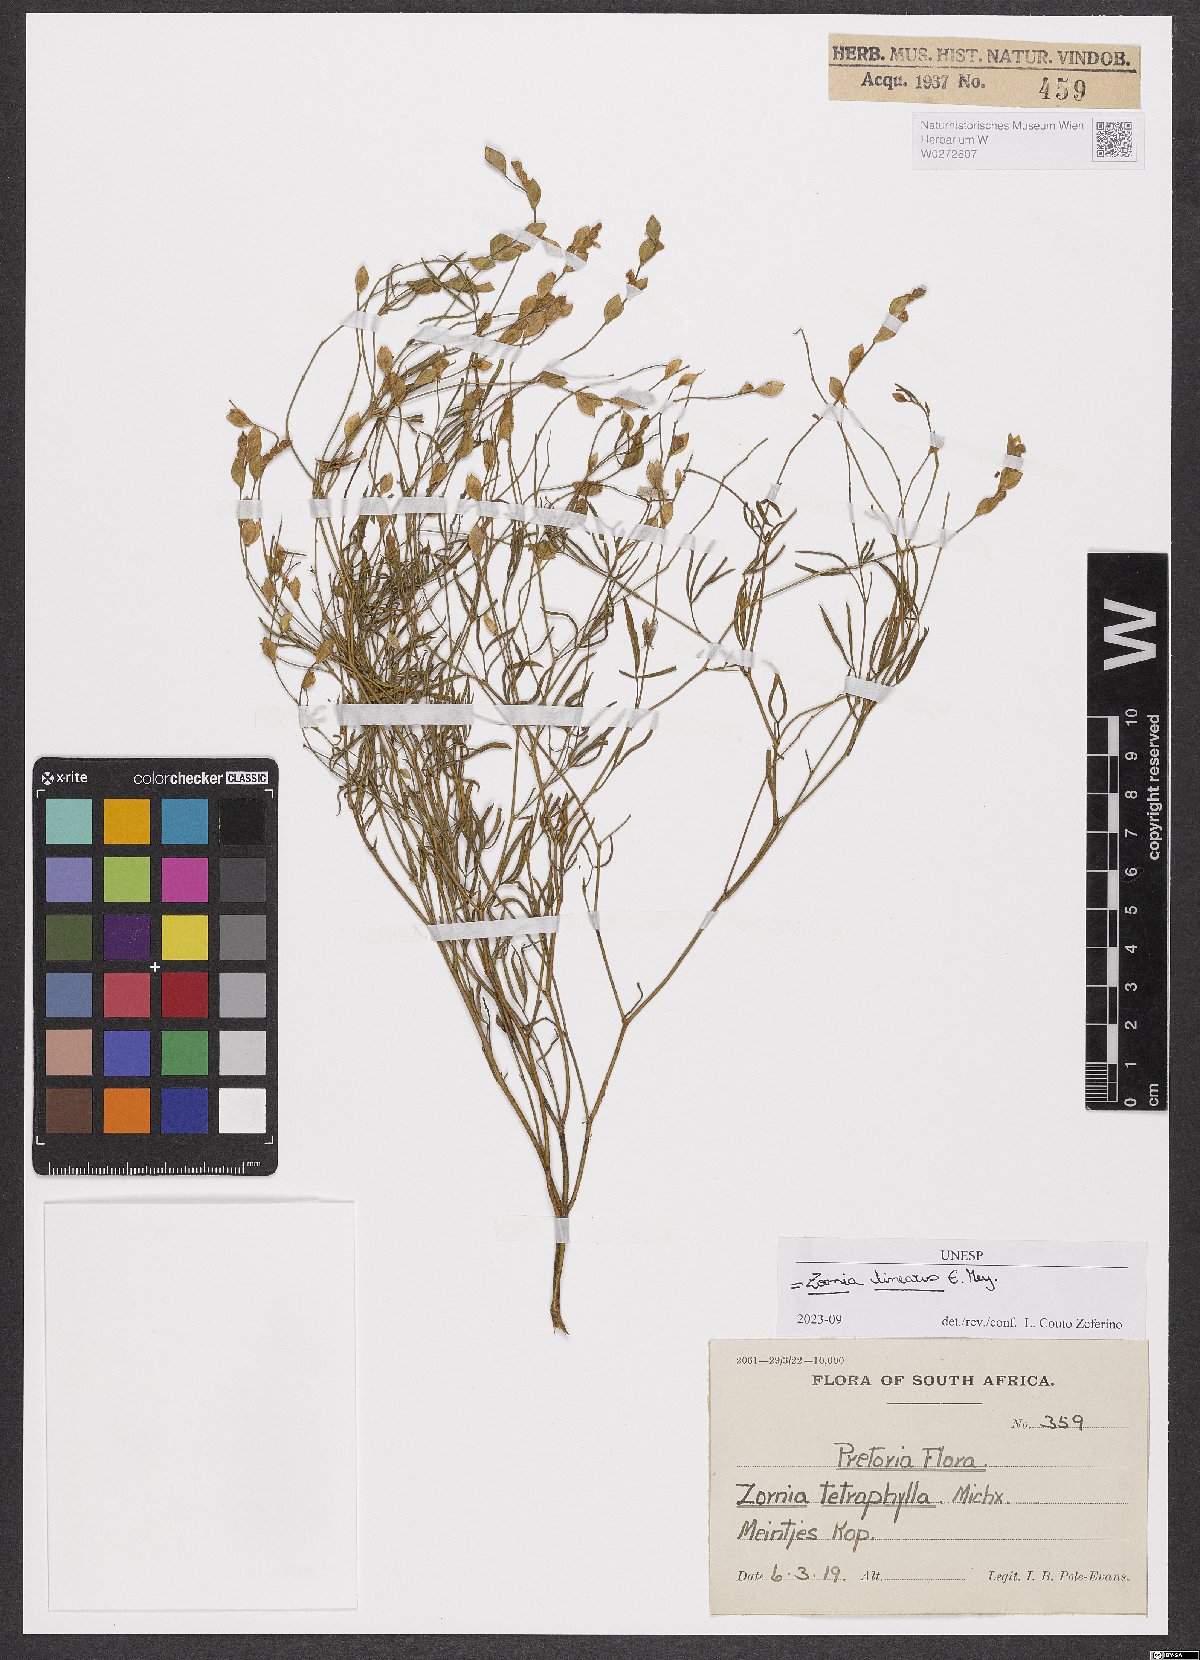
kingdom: Plantae
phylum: Tracheophyta
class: Magnoliopsida
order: Fabales
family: Fabaceae
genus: Zornia
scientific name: Zornia linearis
